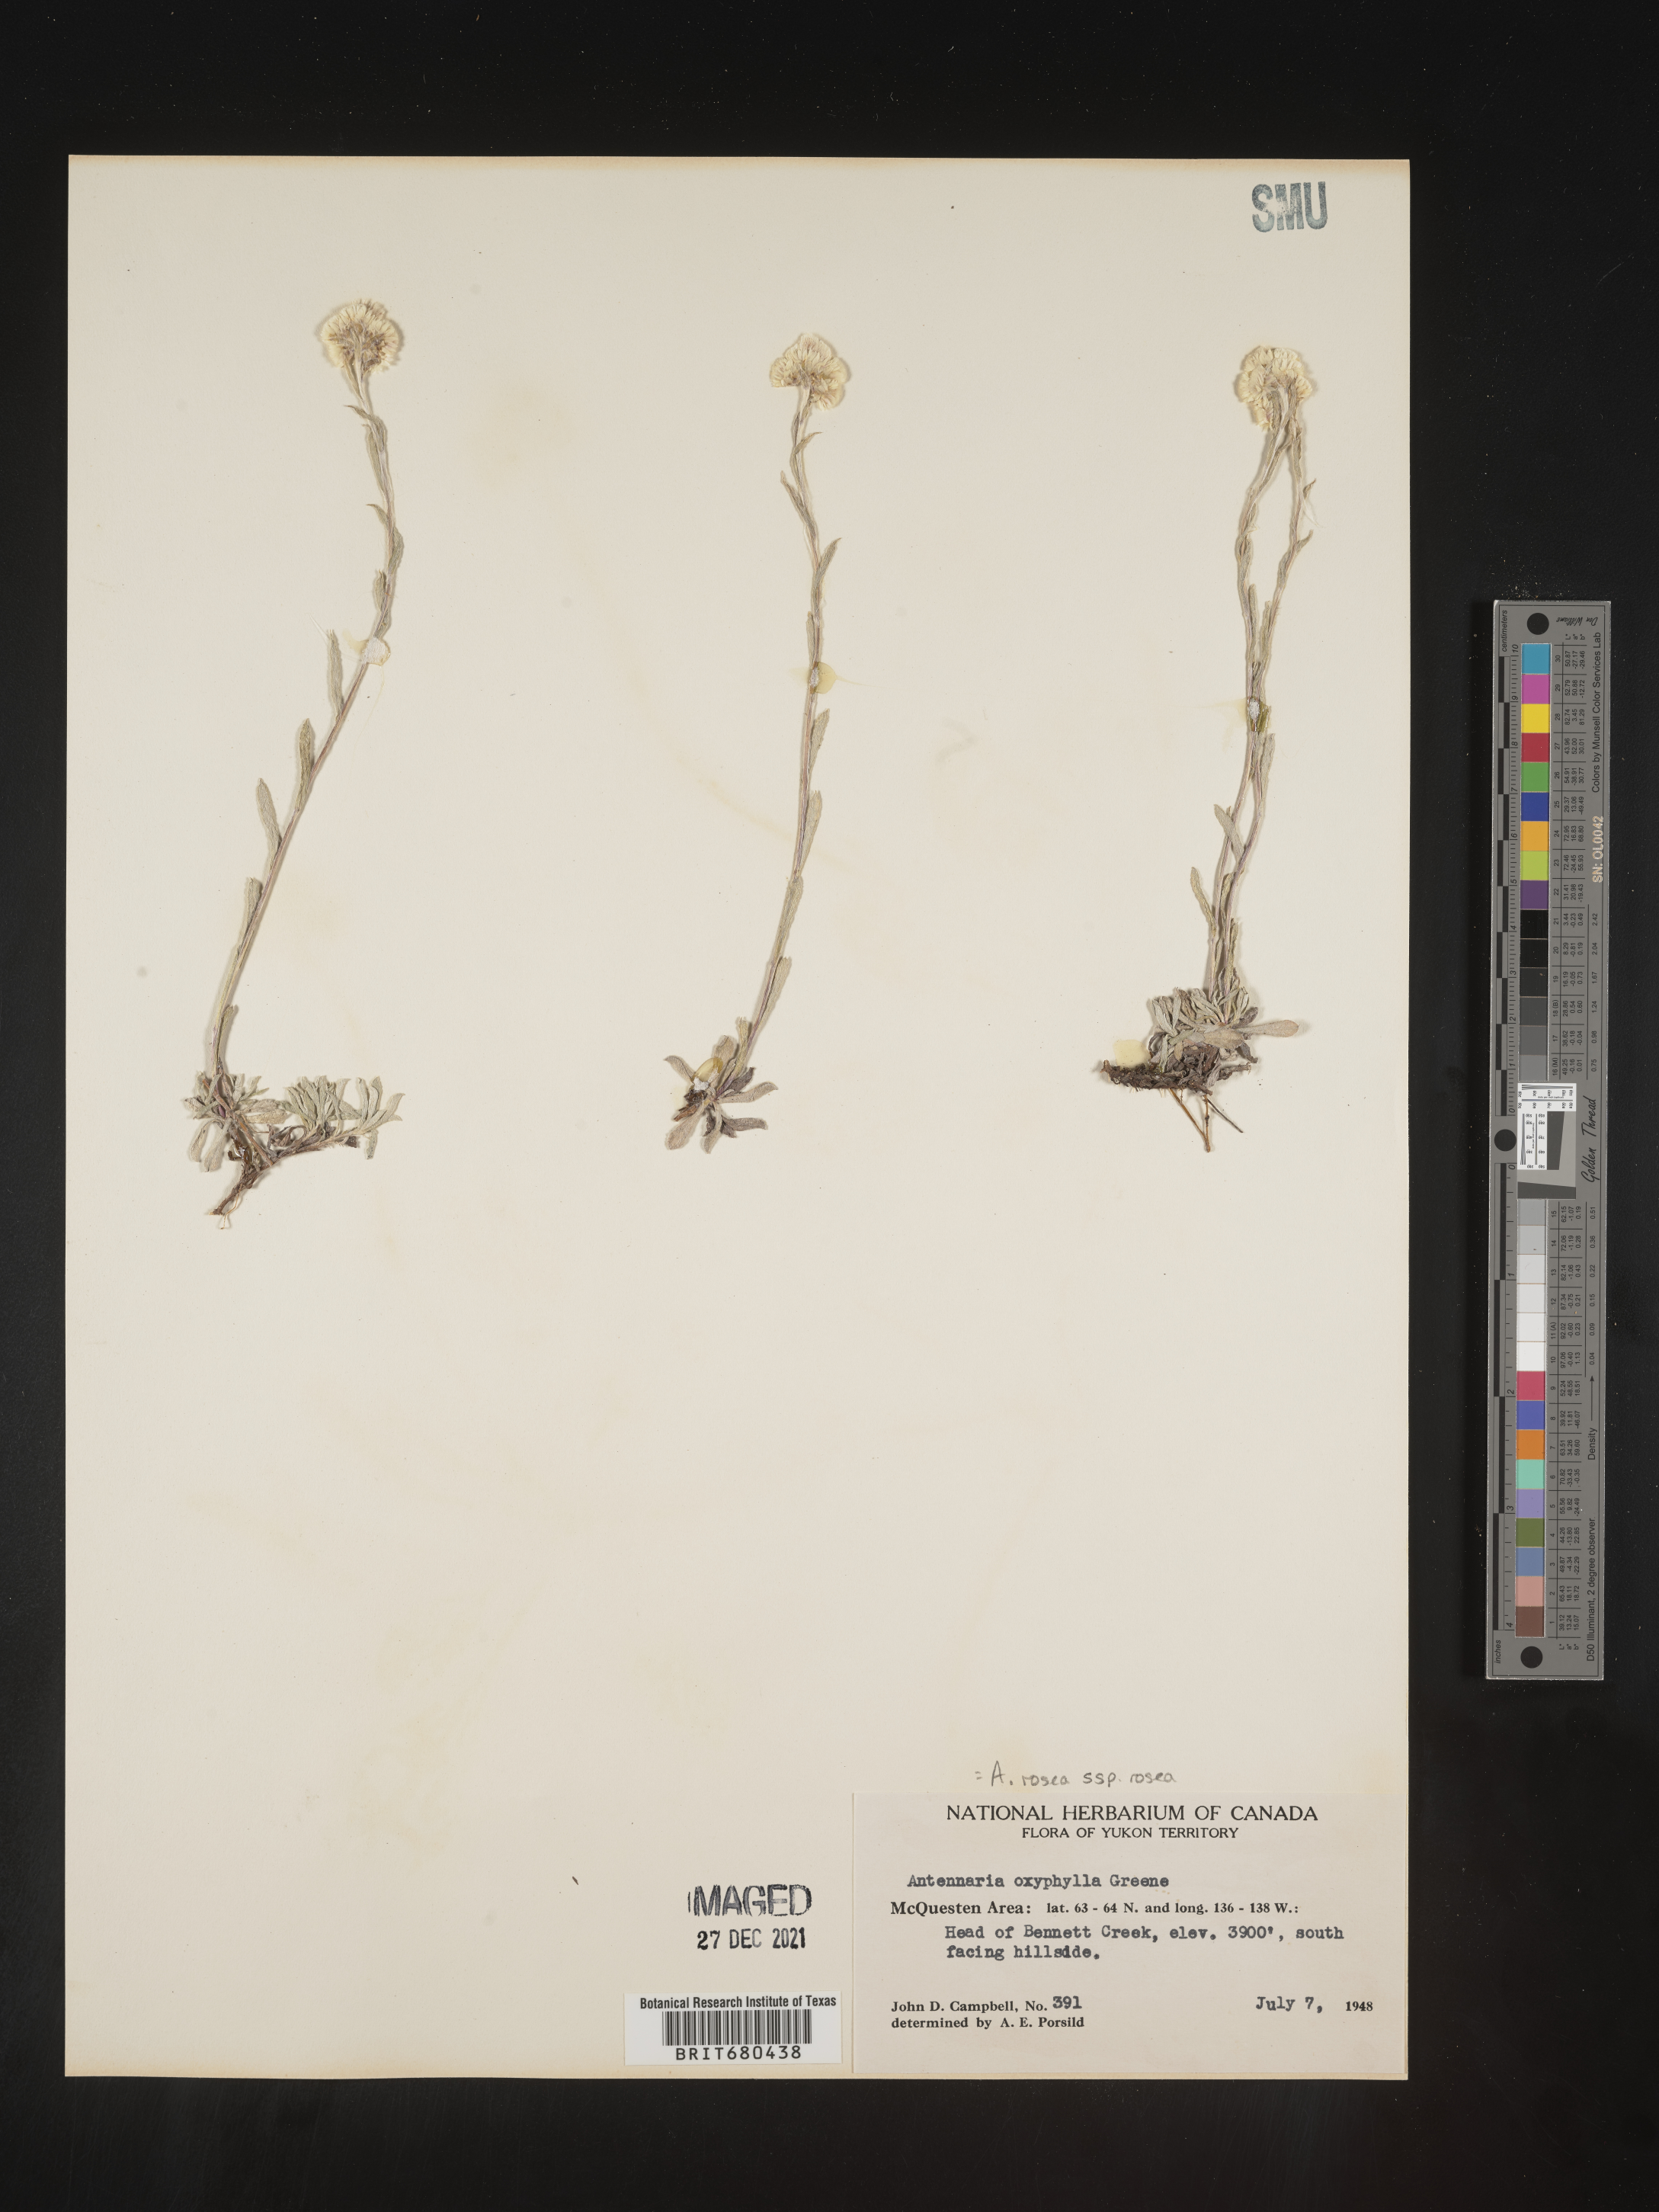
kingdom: Plantae
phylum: Tracheophyta
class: Magnoliopsida
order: Asterales
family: Asteraceae
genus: Antennaria
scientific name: Antennaria rosea
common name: Rosy pussytoes
